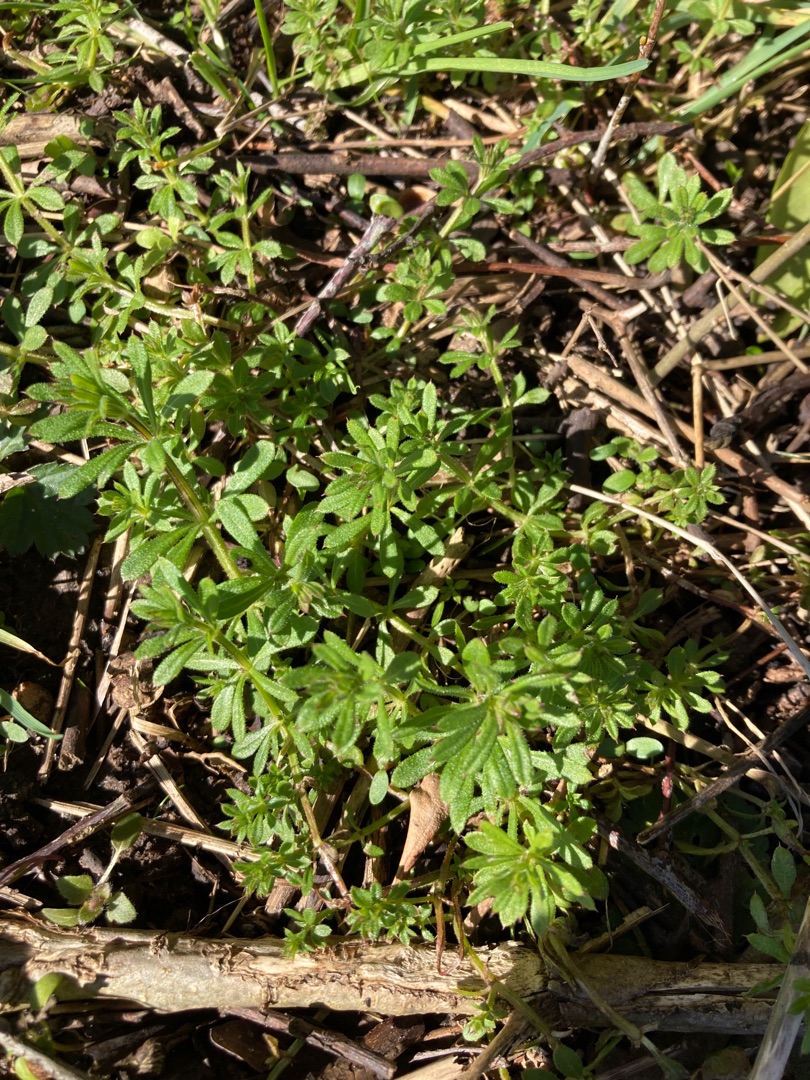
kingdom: Plantae
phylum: Tracheophyta
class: Magnoliopsida
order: Gentianales
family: Rubiaceae
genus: Galium
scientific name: Galium aparine
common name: Burre-snerre
